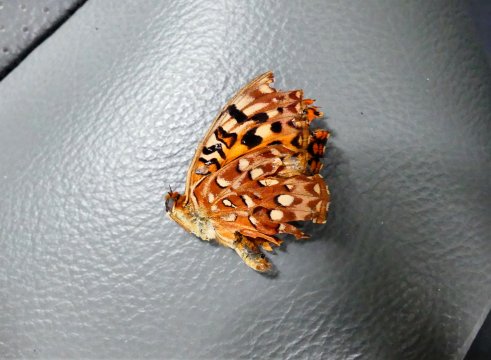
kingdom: Animalia
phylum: Arthropoda
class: Insecta
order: Lepidoptera
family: Nymphalidae
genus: Speyeria
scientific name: Speyeria hydaspe
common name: Hydaspe Fritillary
